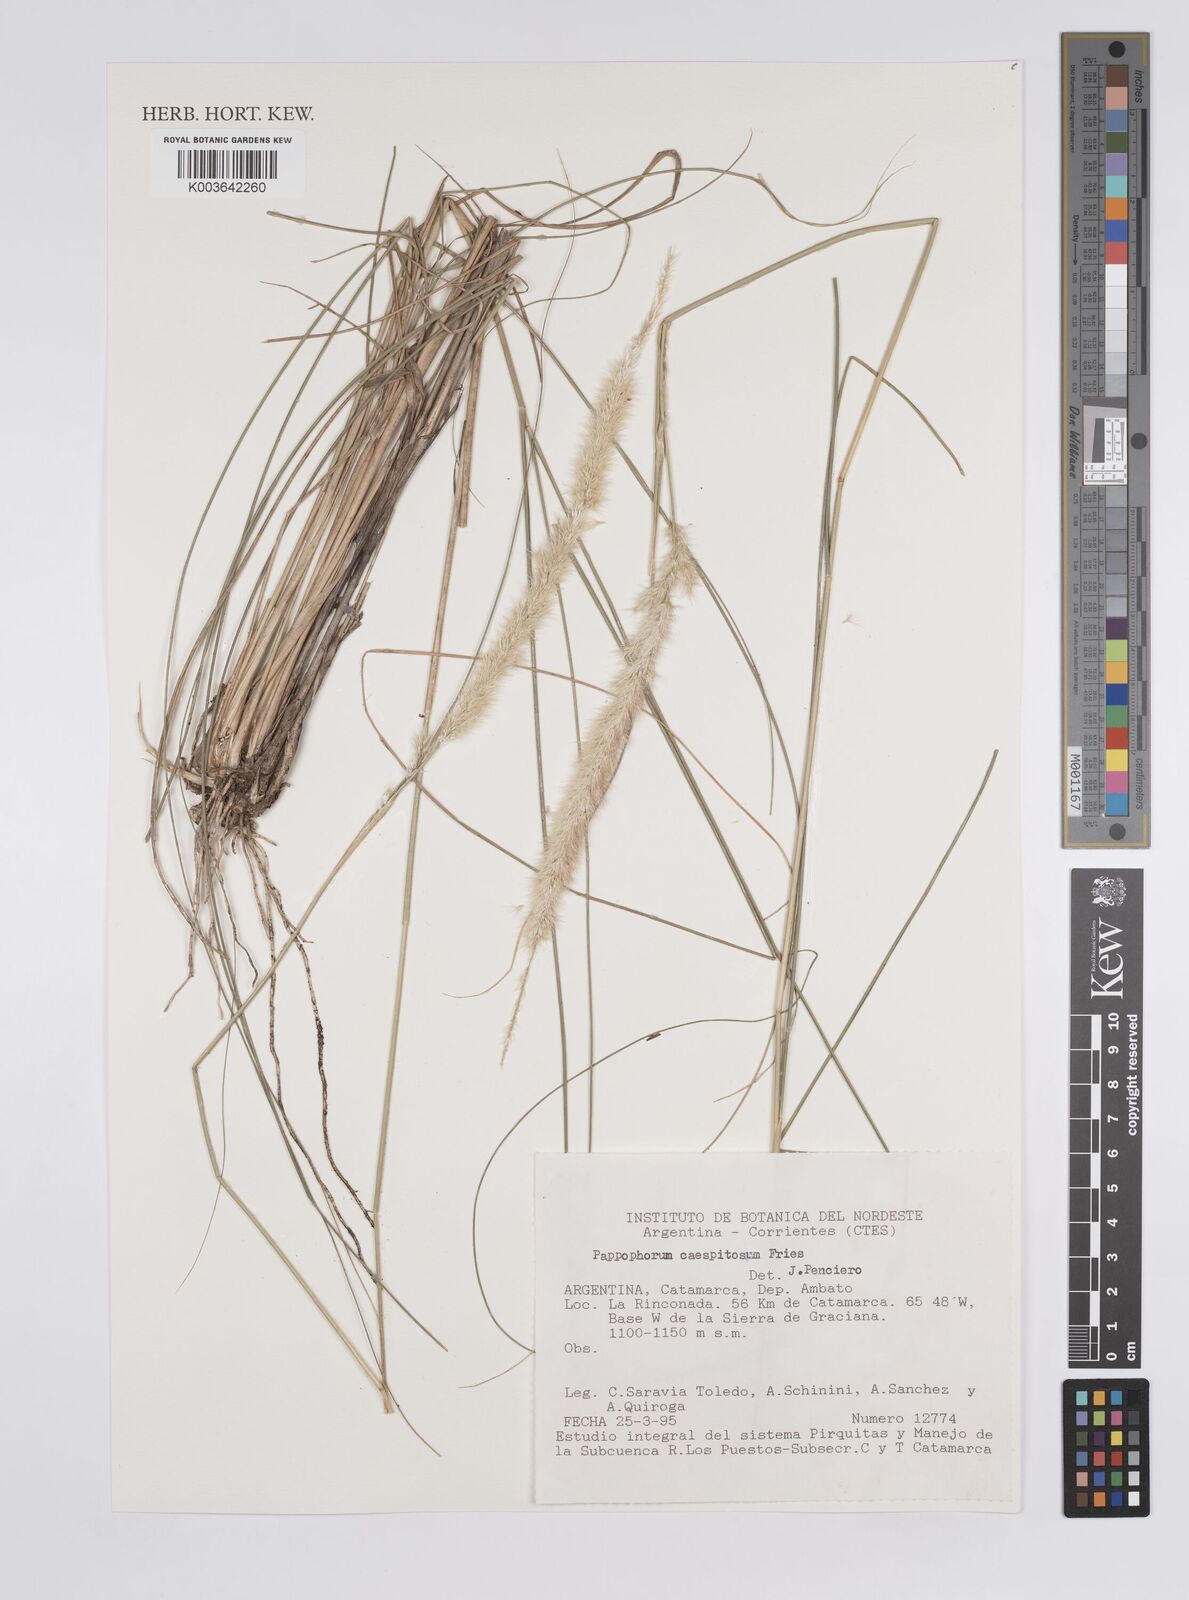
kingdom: Plantae
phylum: Tracheophyta
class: Liliopsida
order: Poales
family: Poaceae
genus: Pappophorum
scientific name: Pappophorum caespitosum
